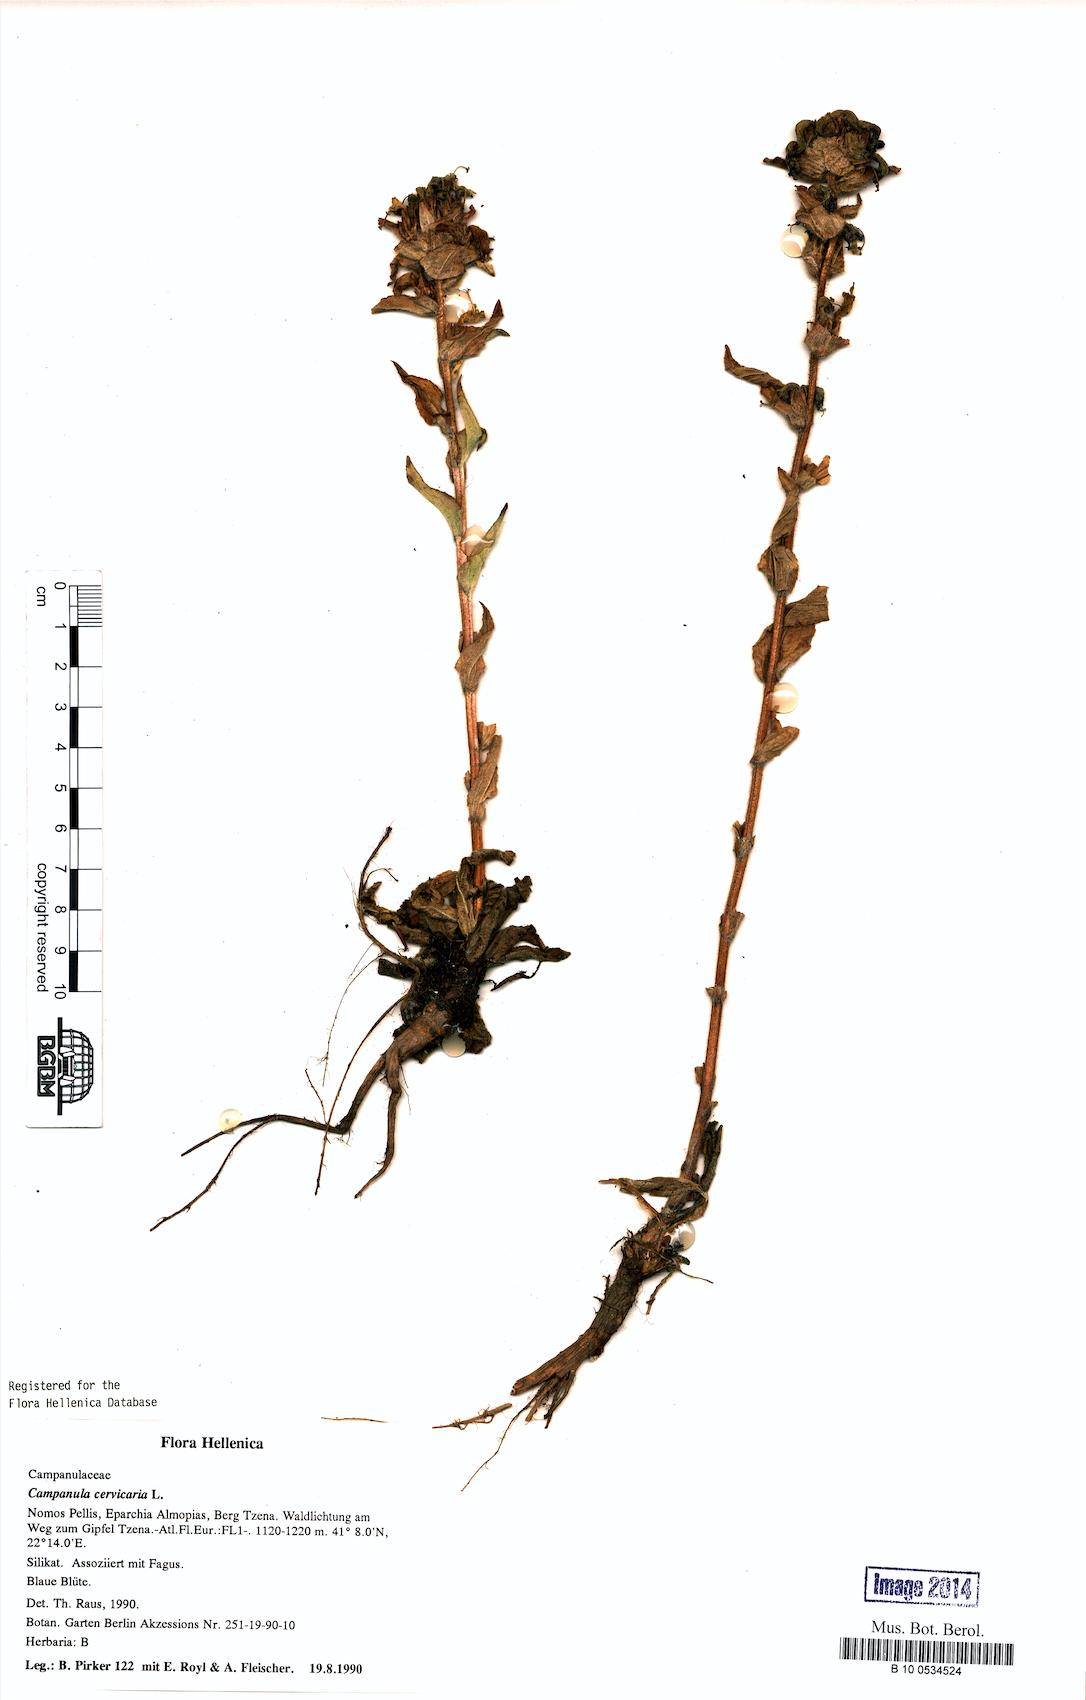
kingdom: Plantae
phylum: Tracheophyta
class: Magnoliopsida
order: Asterales
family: Campanulaceae
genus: Campanula
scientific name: Campanula cervicaria
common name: Bristly bellflower
